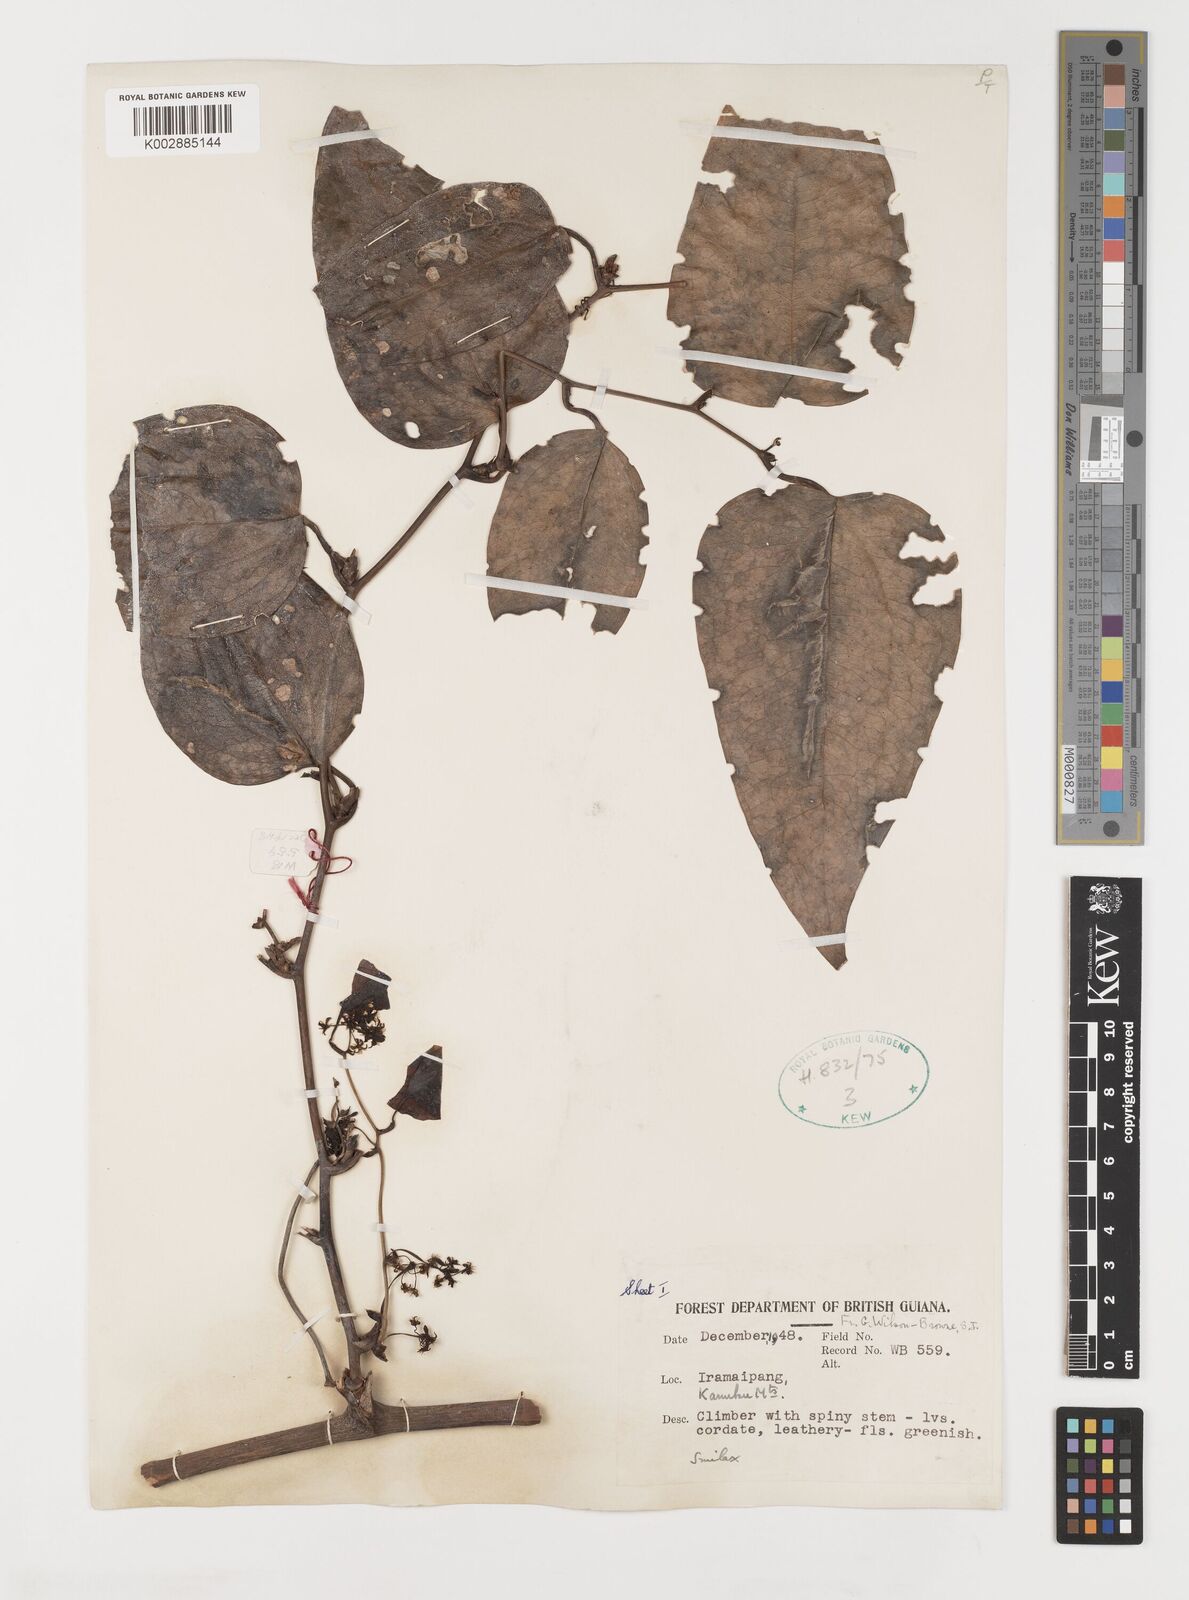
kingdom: Plantae
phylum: Tracheophyta
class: Liliopsida
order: Liliales
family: Smilacaceae
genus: Smilax
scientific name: Smilax
